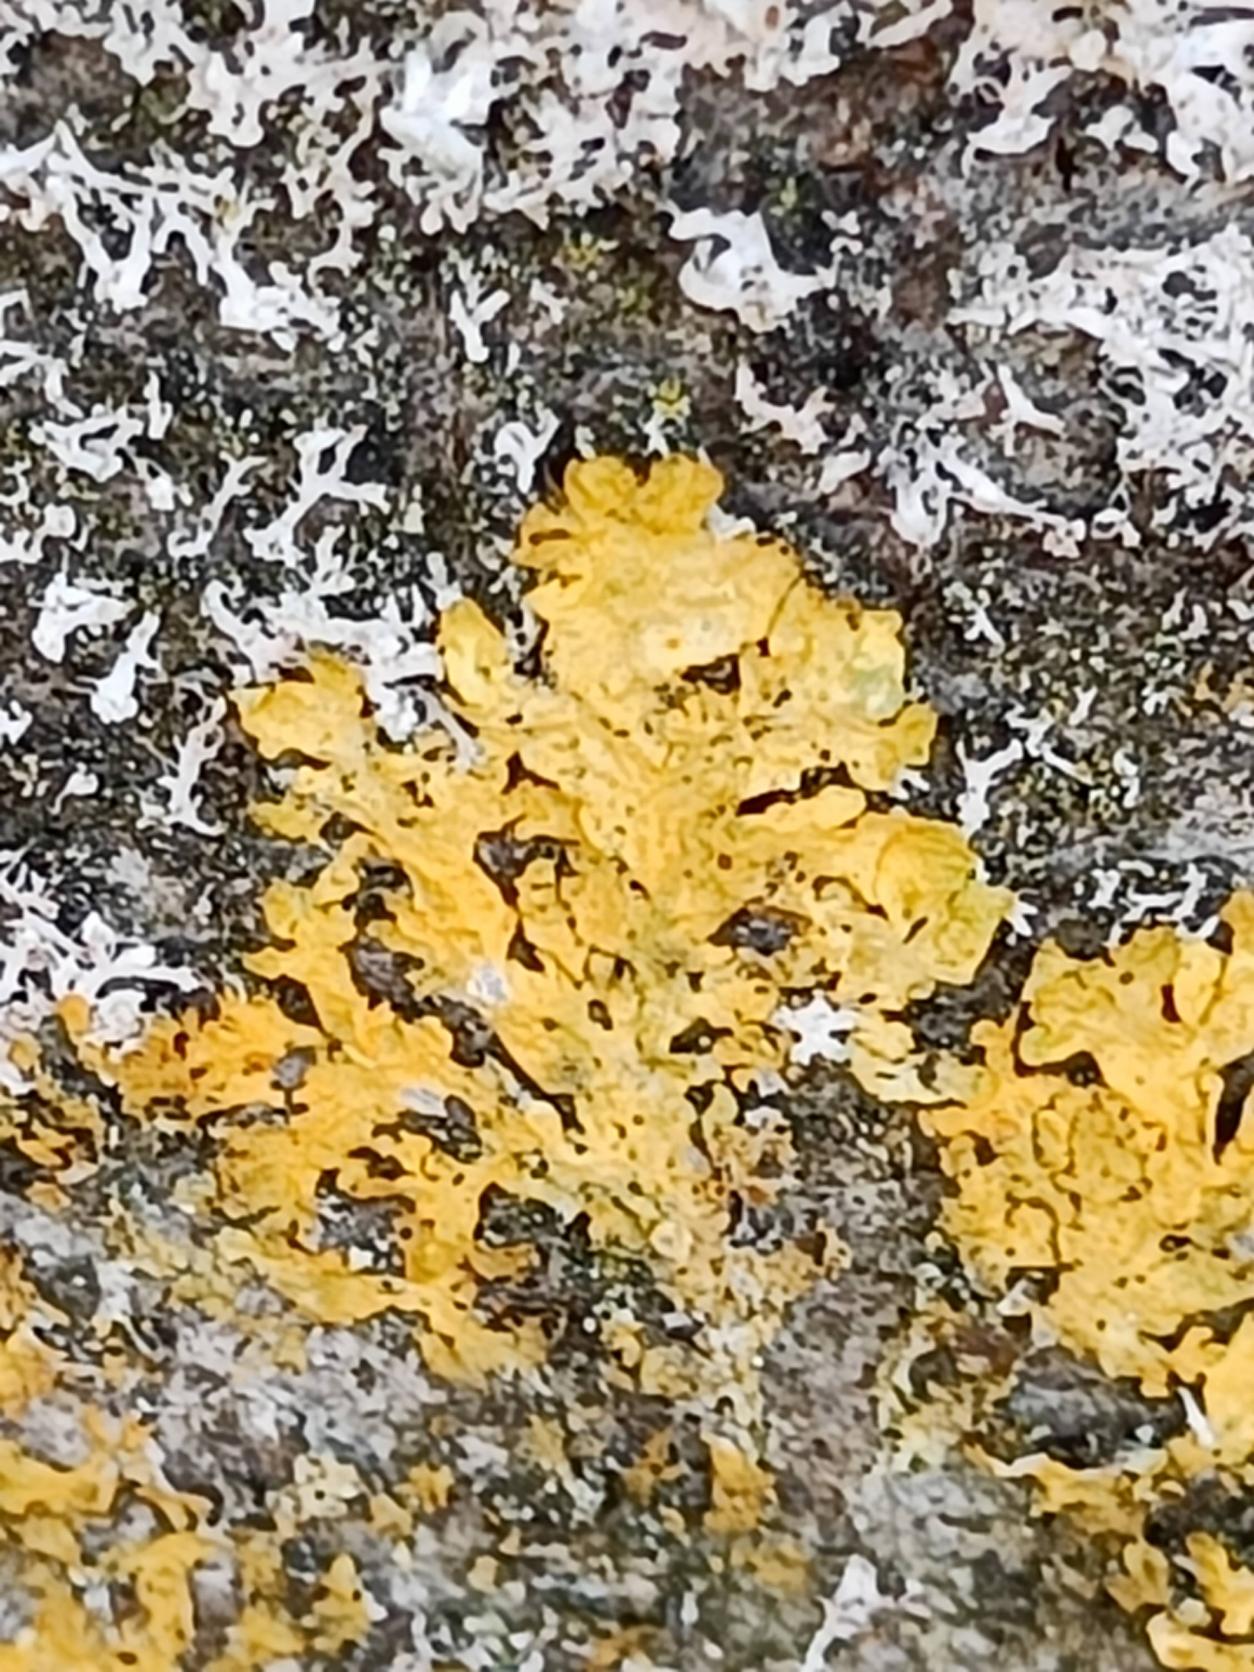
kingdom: Fungi
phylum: Ascomycota
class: Lecanoromycetes
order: Teloschistales
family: Teloschistaceae
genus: Xanthoria
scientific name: Xanthoria parietina
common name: Almindelig væggelav
